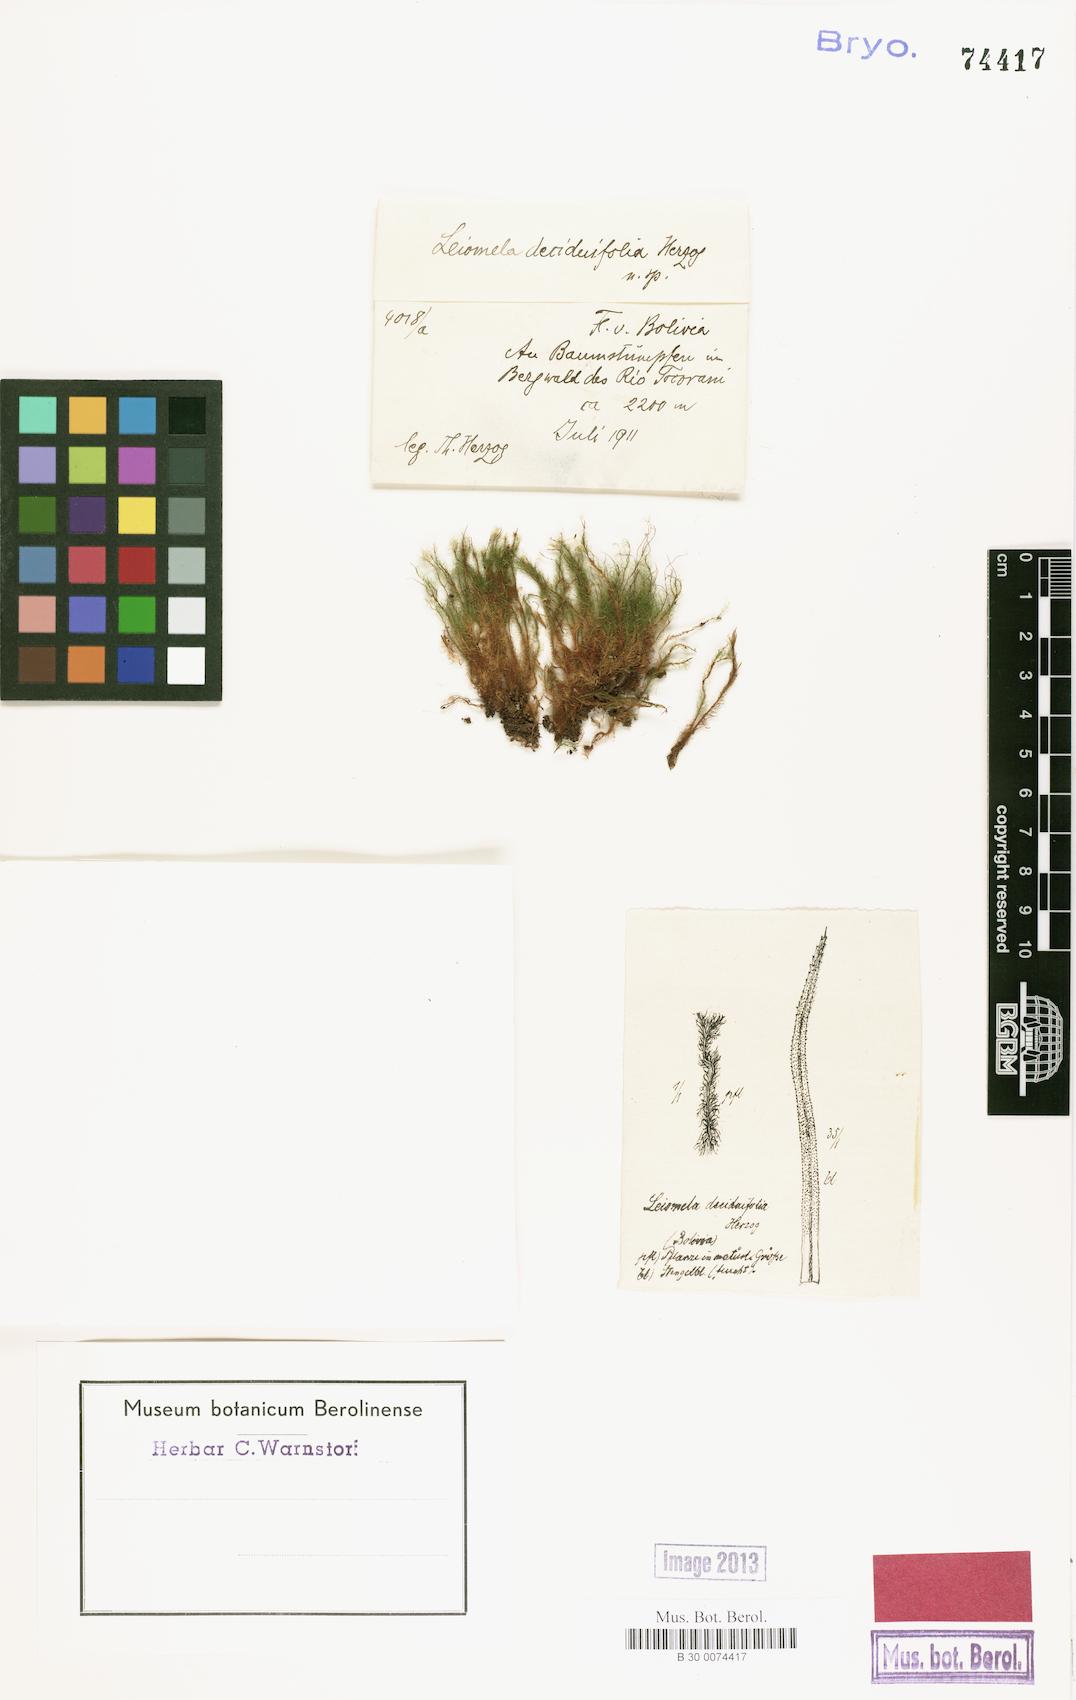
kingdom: Plantae
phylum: Bryophyta
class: Bryopsida
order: Bartramiales
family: Bartramiaceae
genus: Leiomela
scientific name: Leiomela deciduifolia
